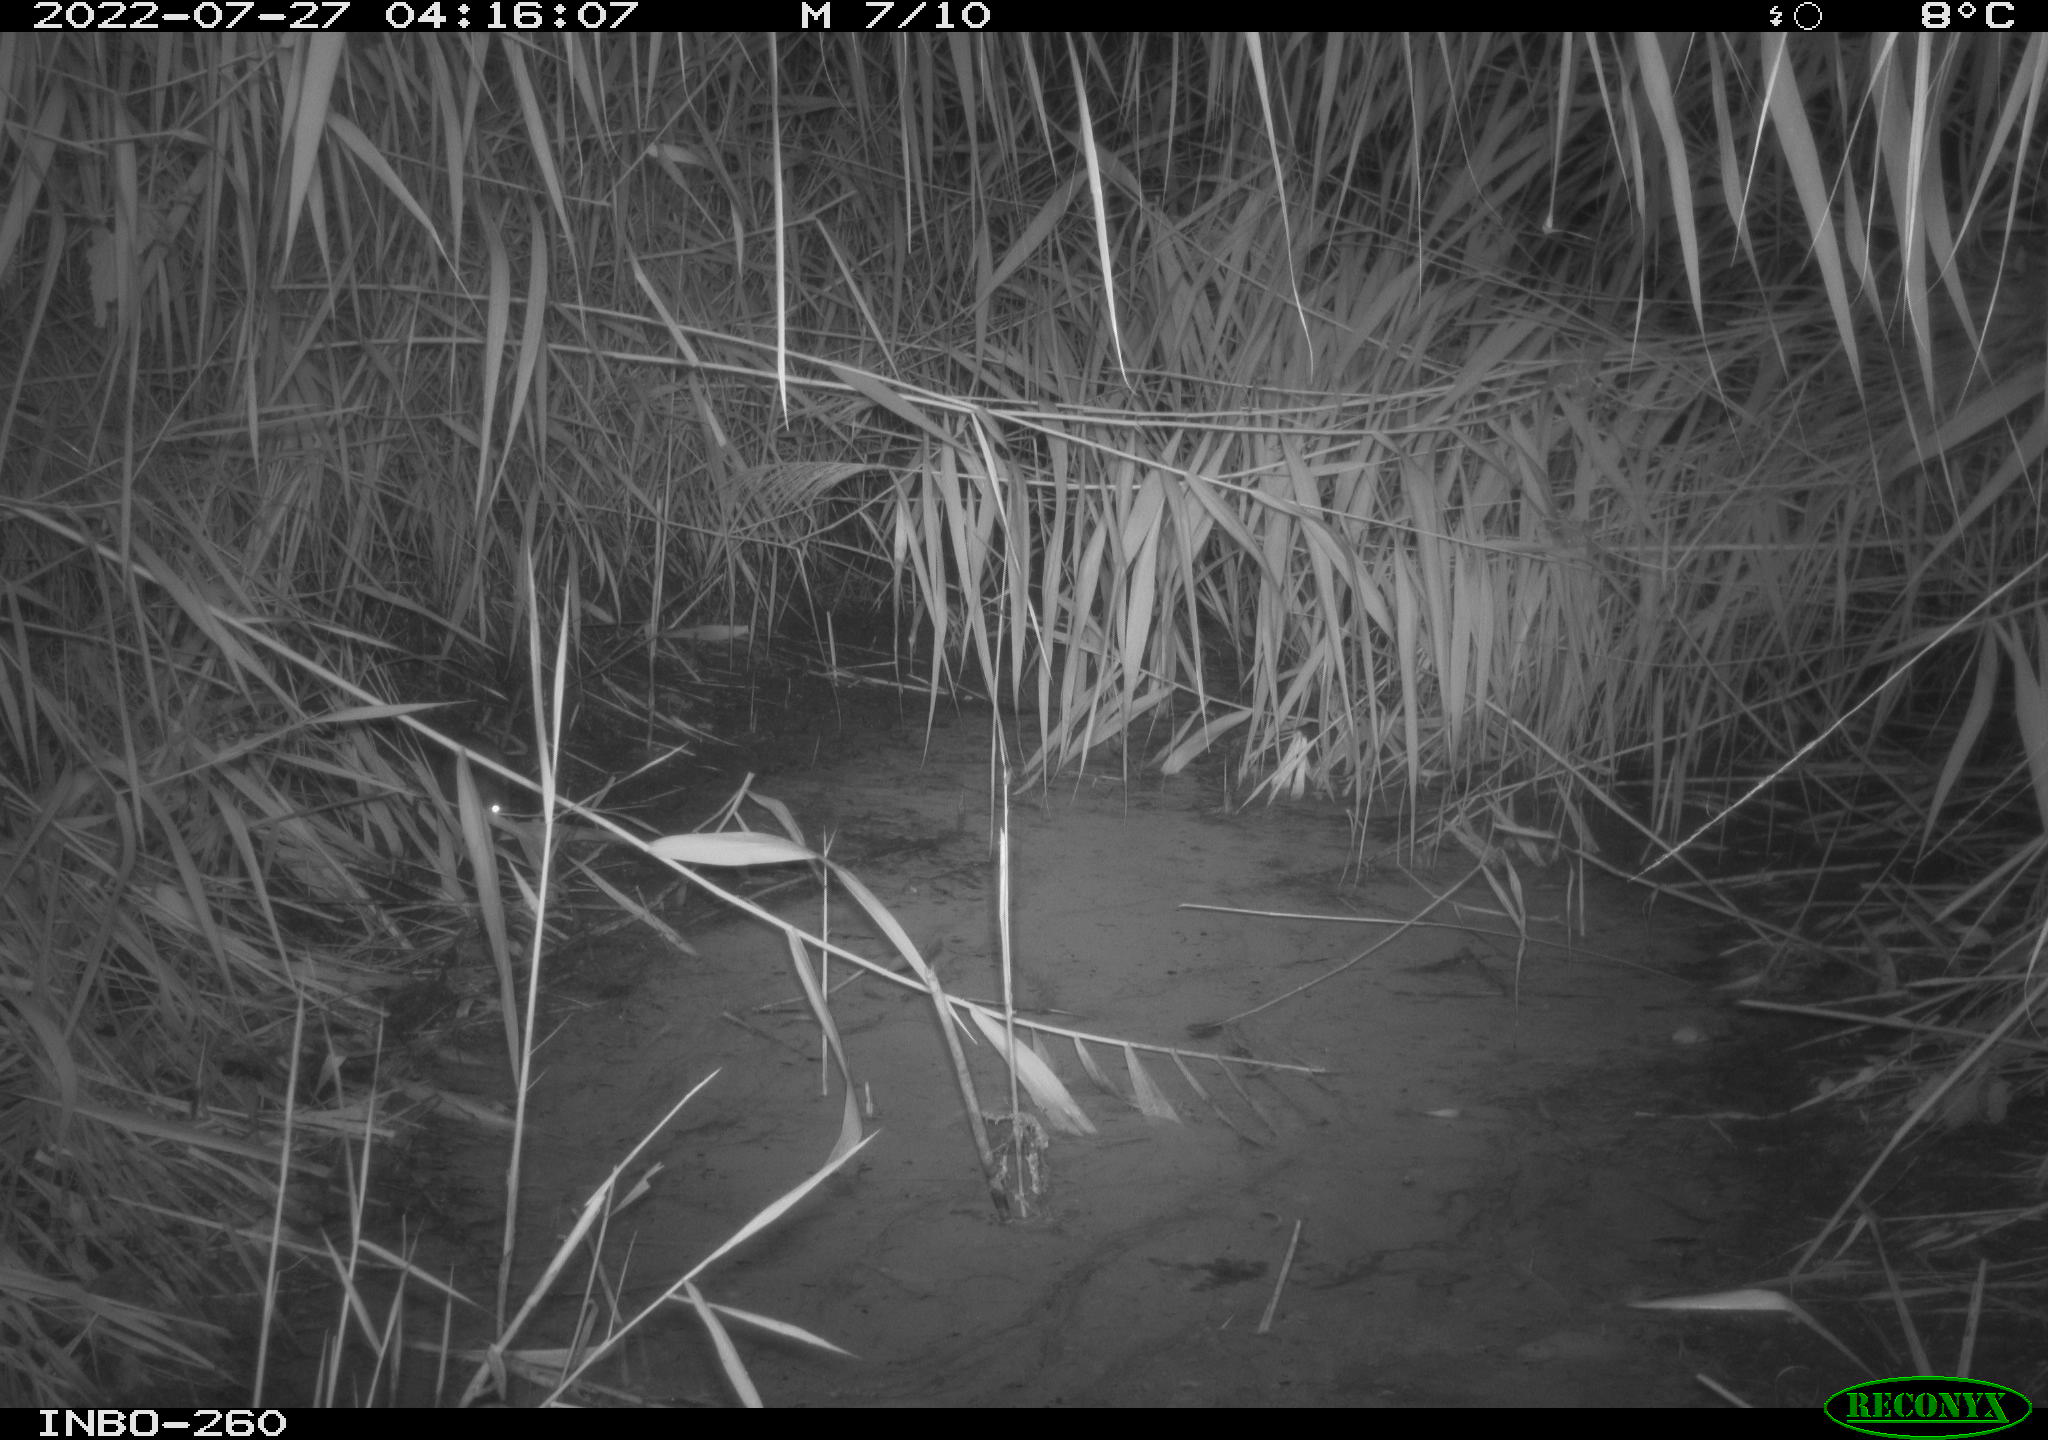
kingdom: Animalia
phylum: Chordata
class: Mammalia
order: Rodentia
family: Muridae
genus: Rattus
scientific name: Rattus norvegicus
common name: Brown rat
